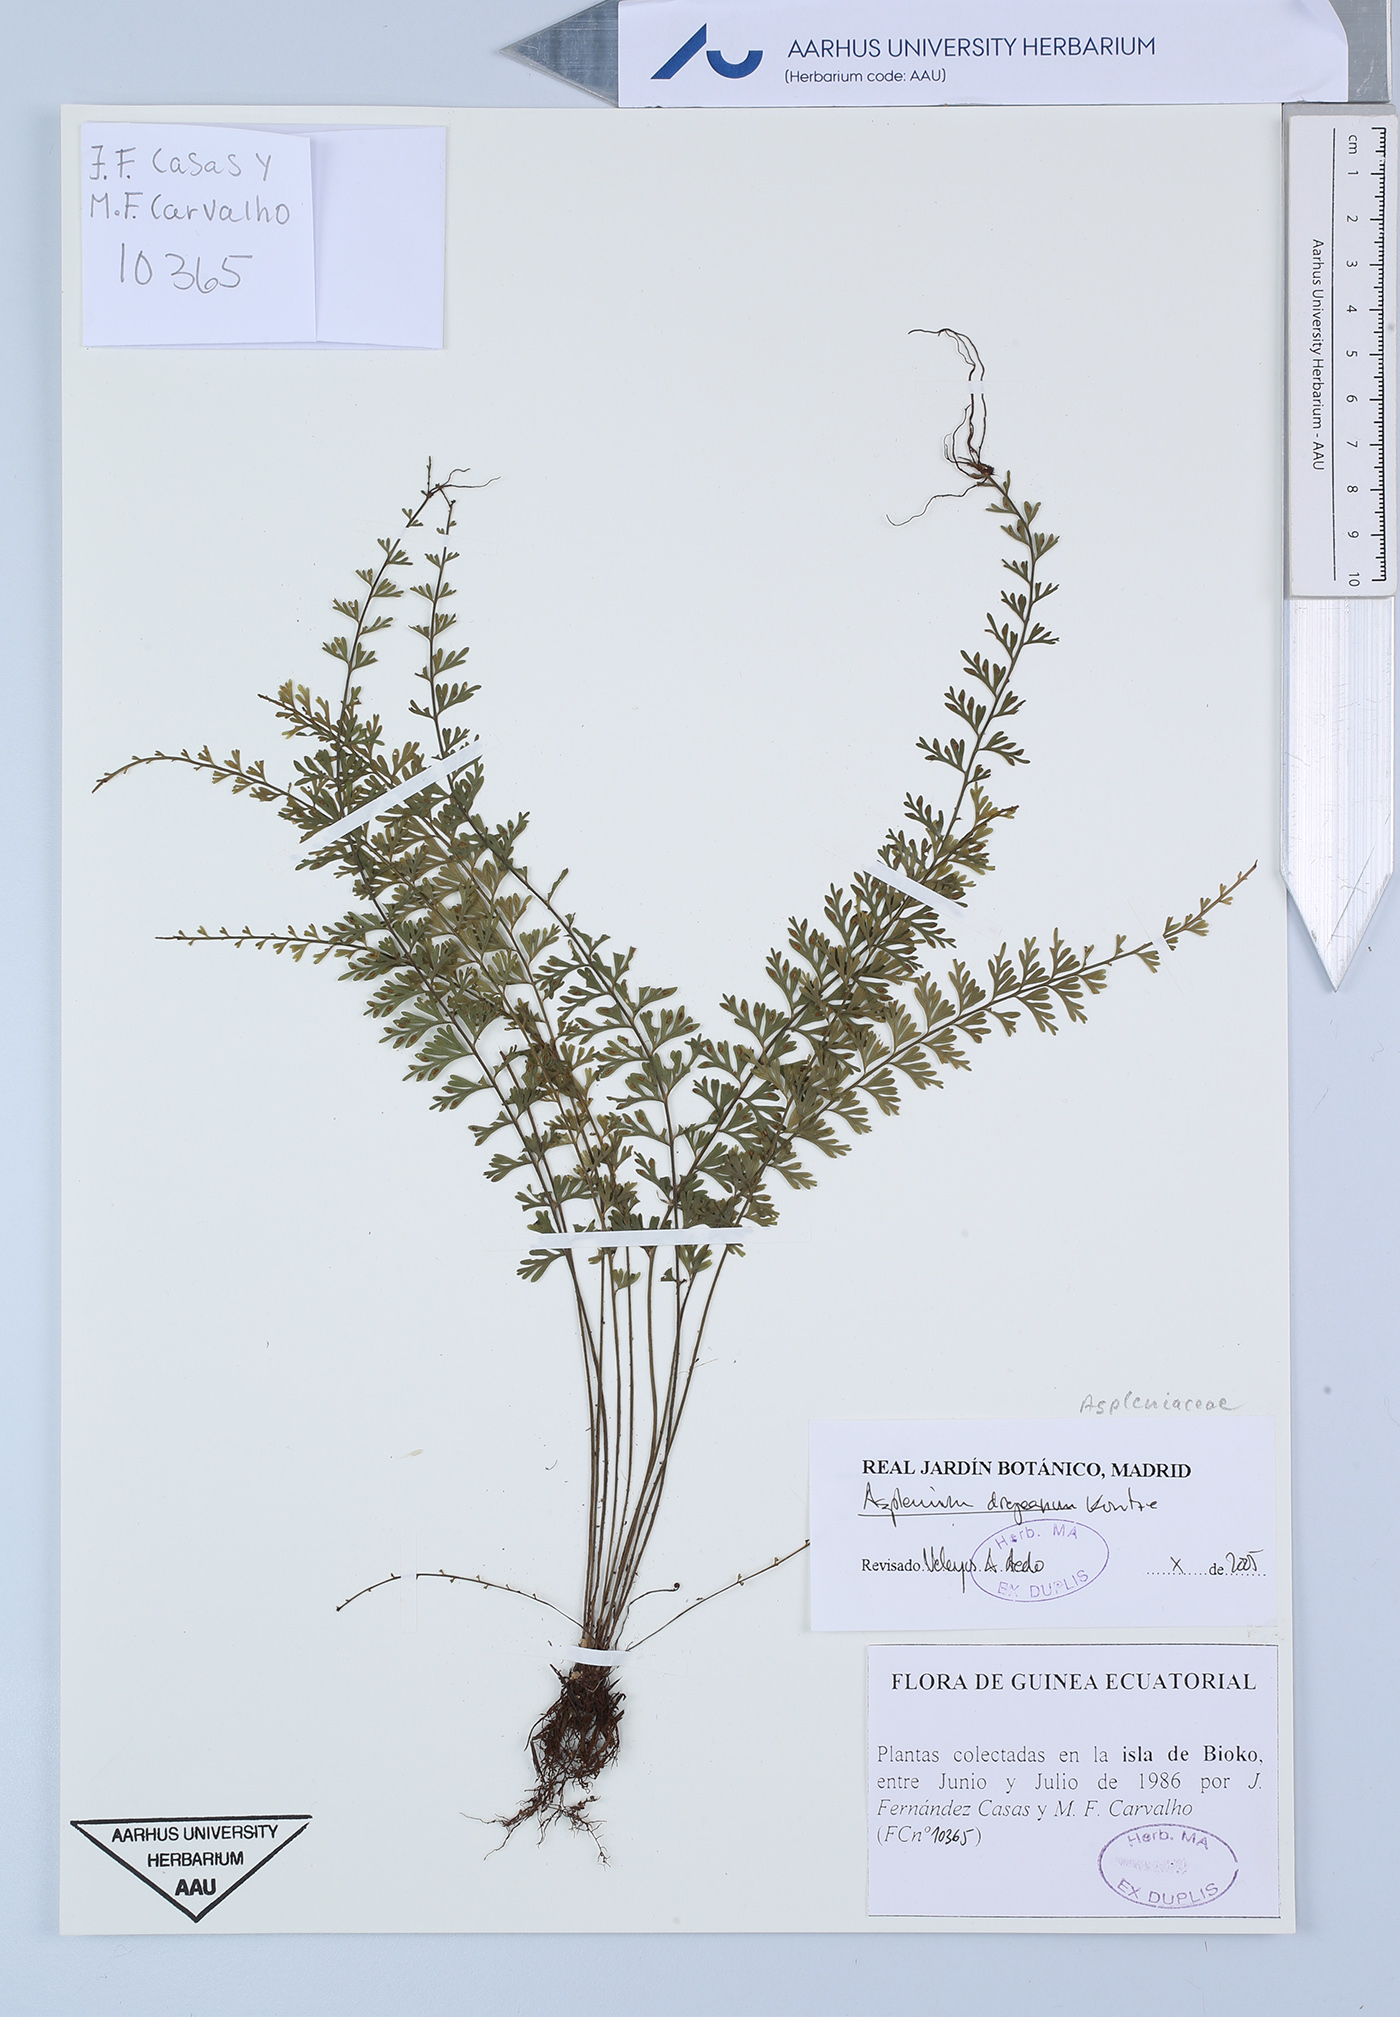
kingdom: Plantae
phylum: Tracheophyta
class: Polypodiopsida
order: Polypodiales
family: Aspleniaceae
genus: Asplenium
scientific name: Asplenium dregeanum
